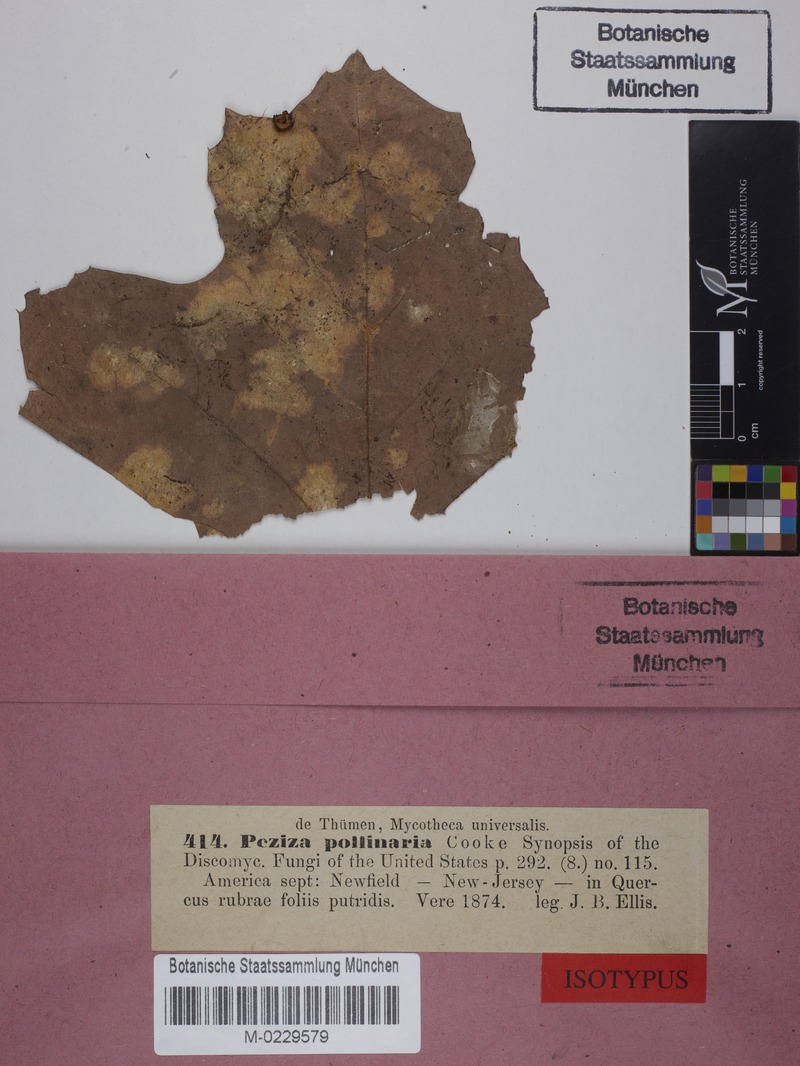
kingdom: Fungi
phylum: Basidiomycota
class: Agaricomycetes
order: Agaricales
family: Niaceae
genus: Lachnella
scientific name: Lachnella pollinaria
